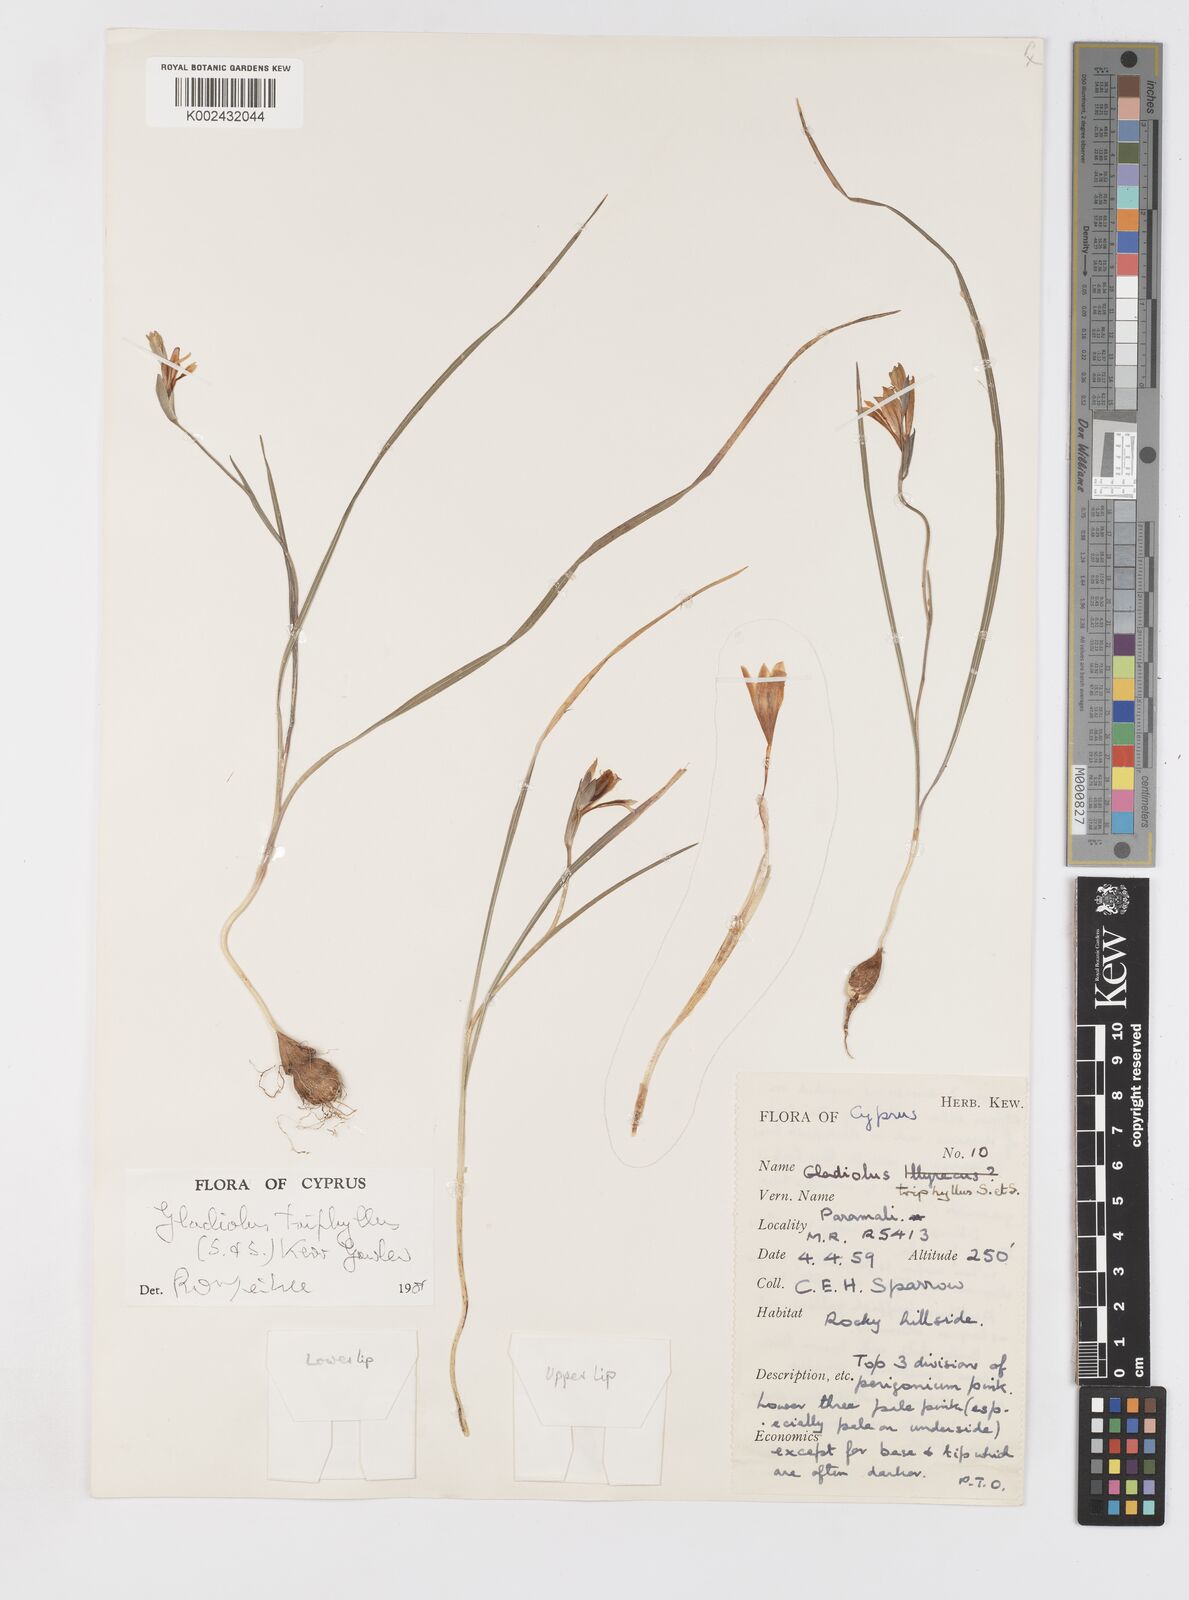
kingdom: Plantae
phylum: Tracheophyta
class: Liliopsida
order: Asparagales
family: Iridaceae
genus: Gladiolus
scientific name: Gladiolus triphyllus
